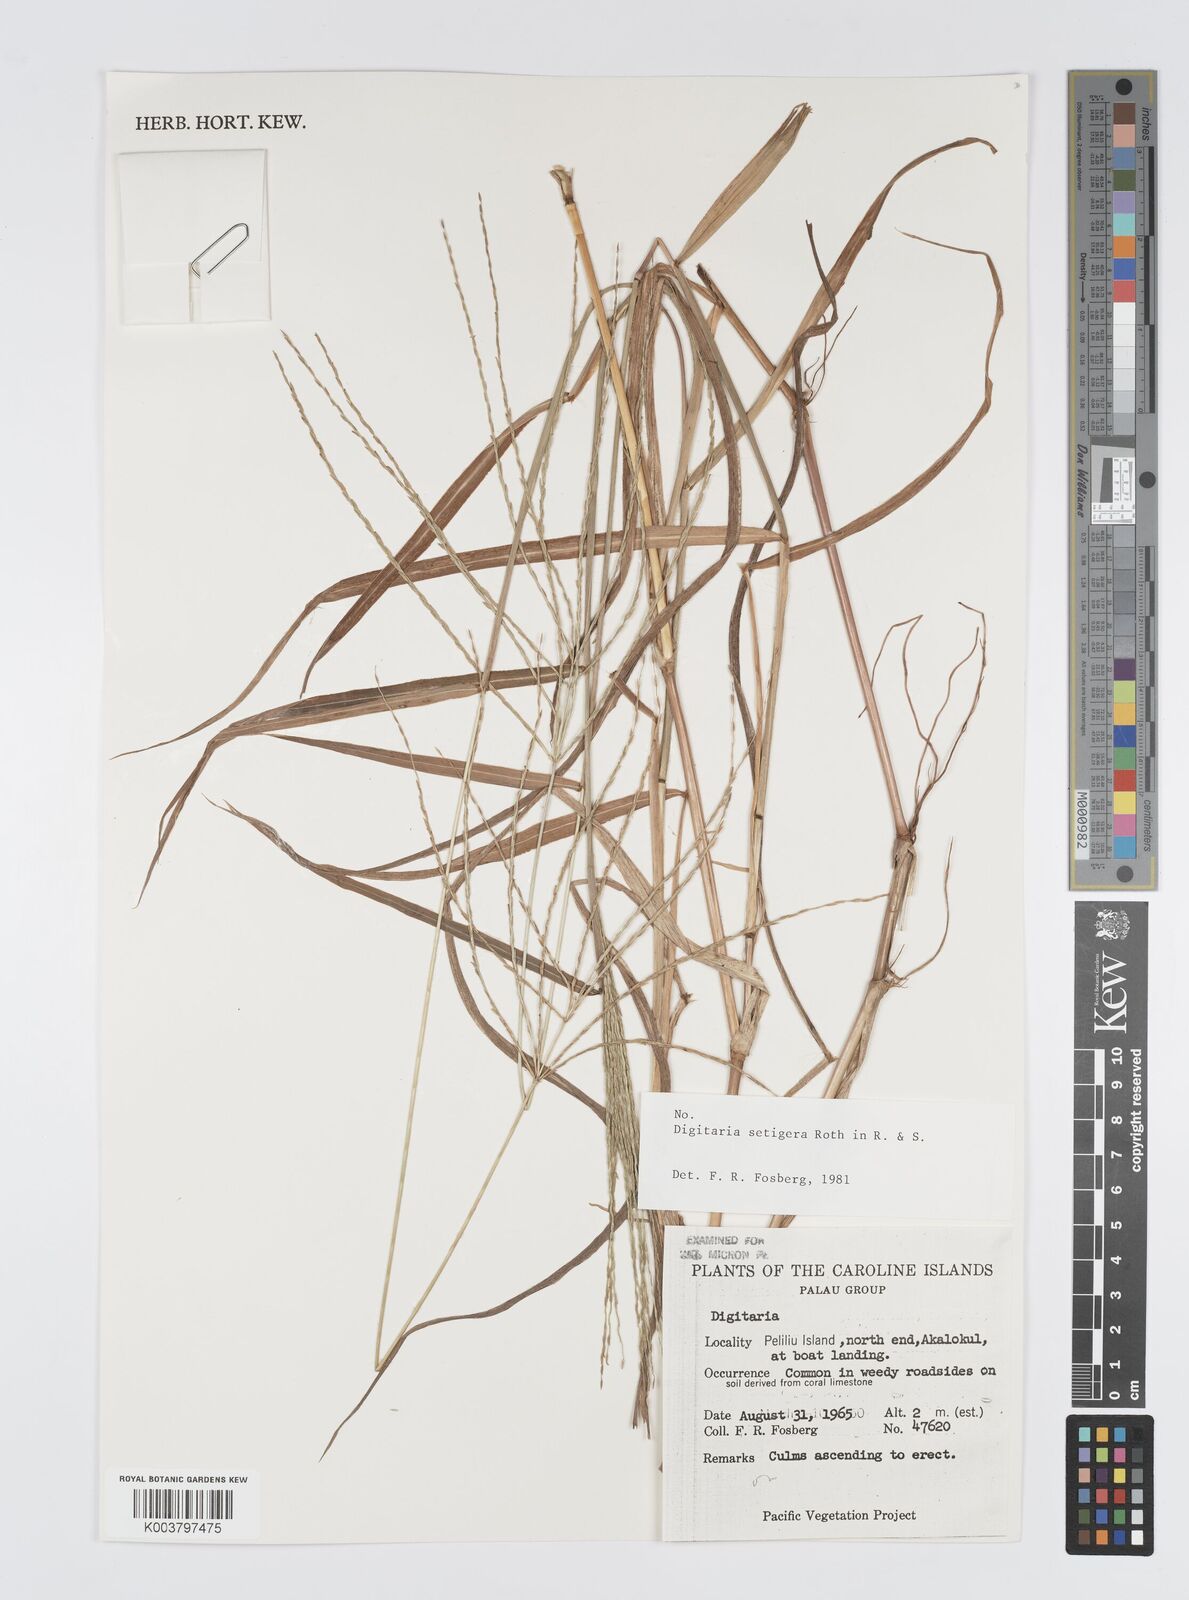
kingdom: Plantae
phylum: Tracheophyta
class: Liliopsida
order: Poales
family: Poaceae
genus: Digitaria
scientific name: Digitaria setigera
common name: East indian crabgrass
